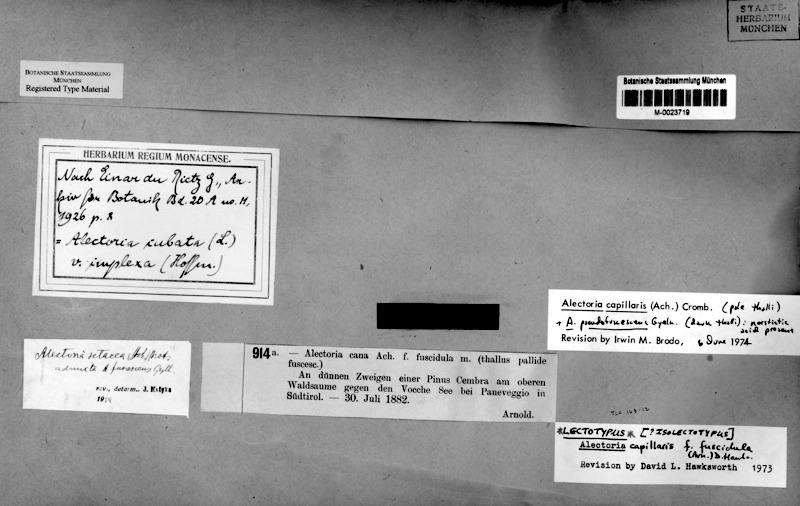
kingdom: Fungi
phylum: Ascomycota
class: Lecanoromycetes
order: Lecanorales
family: Parmeliaceae
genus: Bryoria
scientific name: Bryoria implexa
